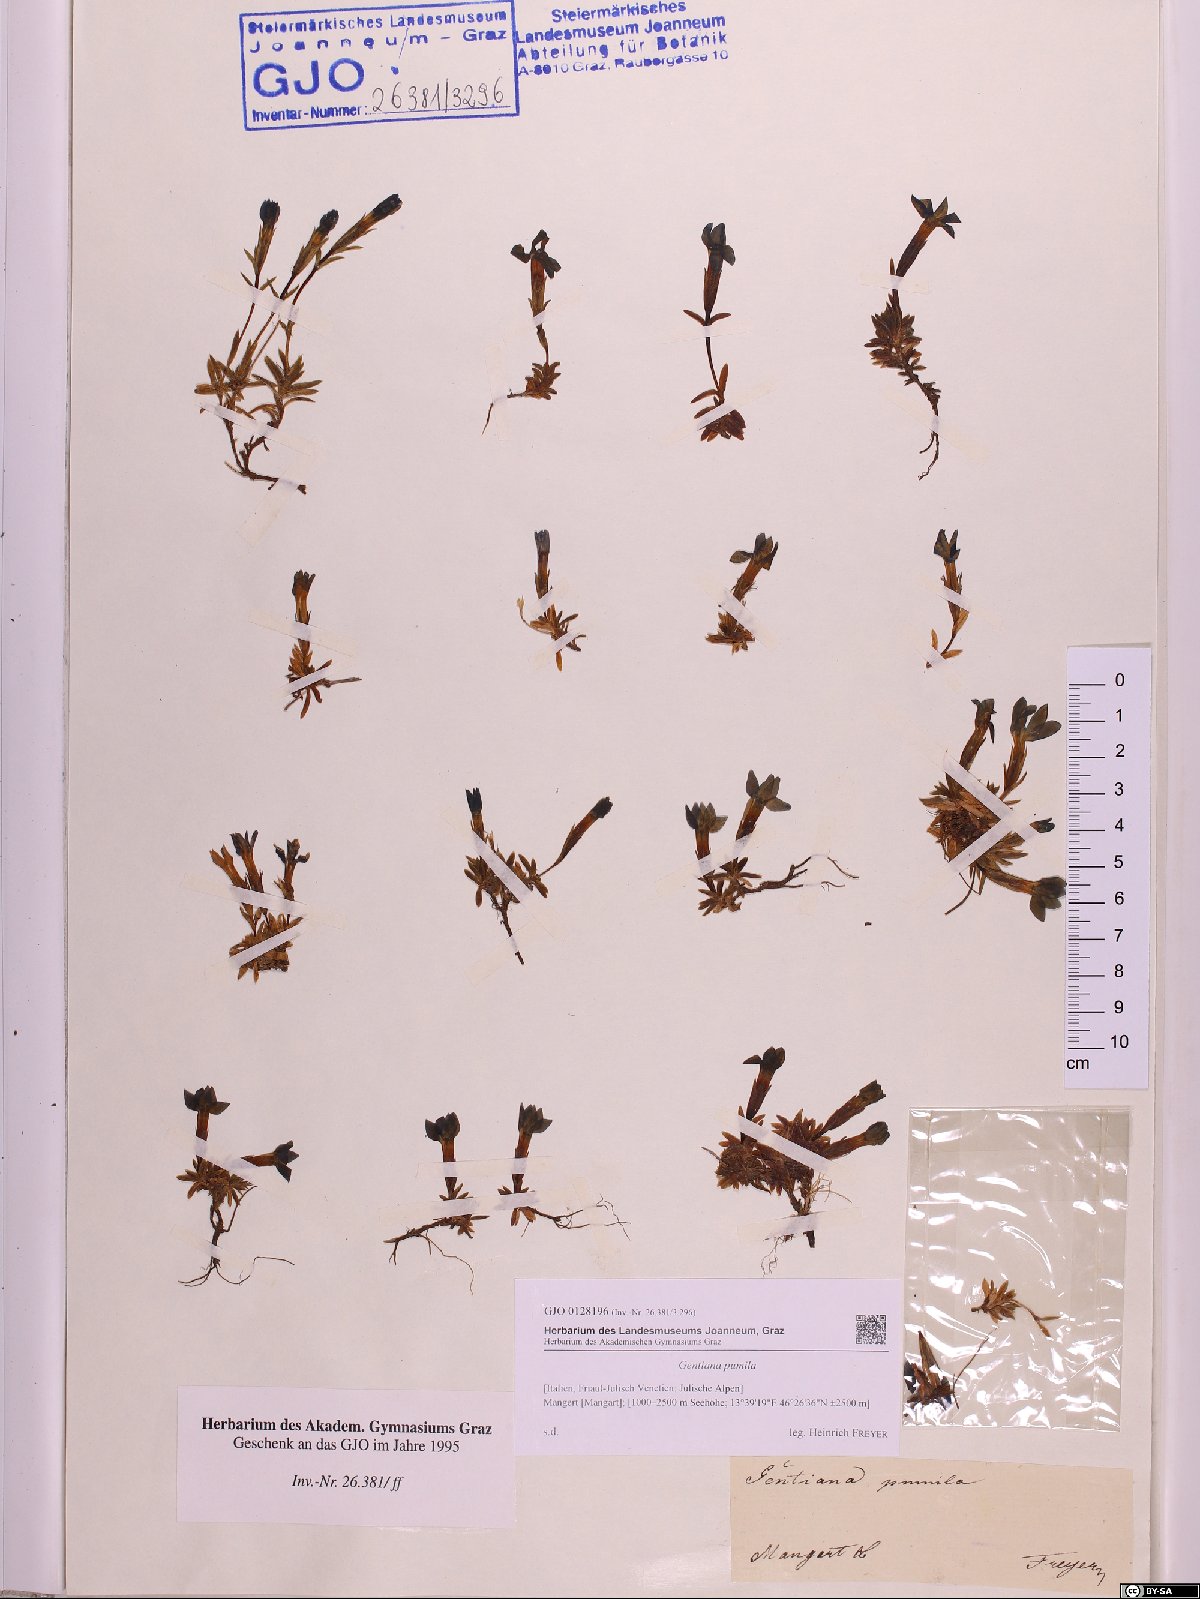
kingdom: Plantae
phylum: Tracheophyta
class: Magnoliopsida
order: Gentianales
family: Gentianaceae
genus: Gentiana
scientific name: Gentiana pumila
